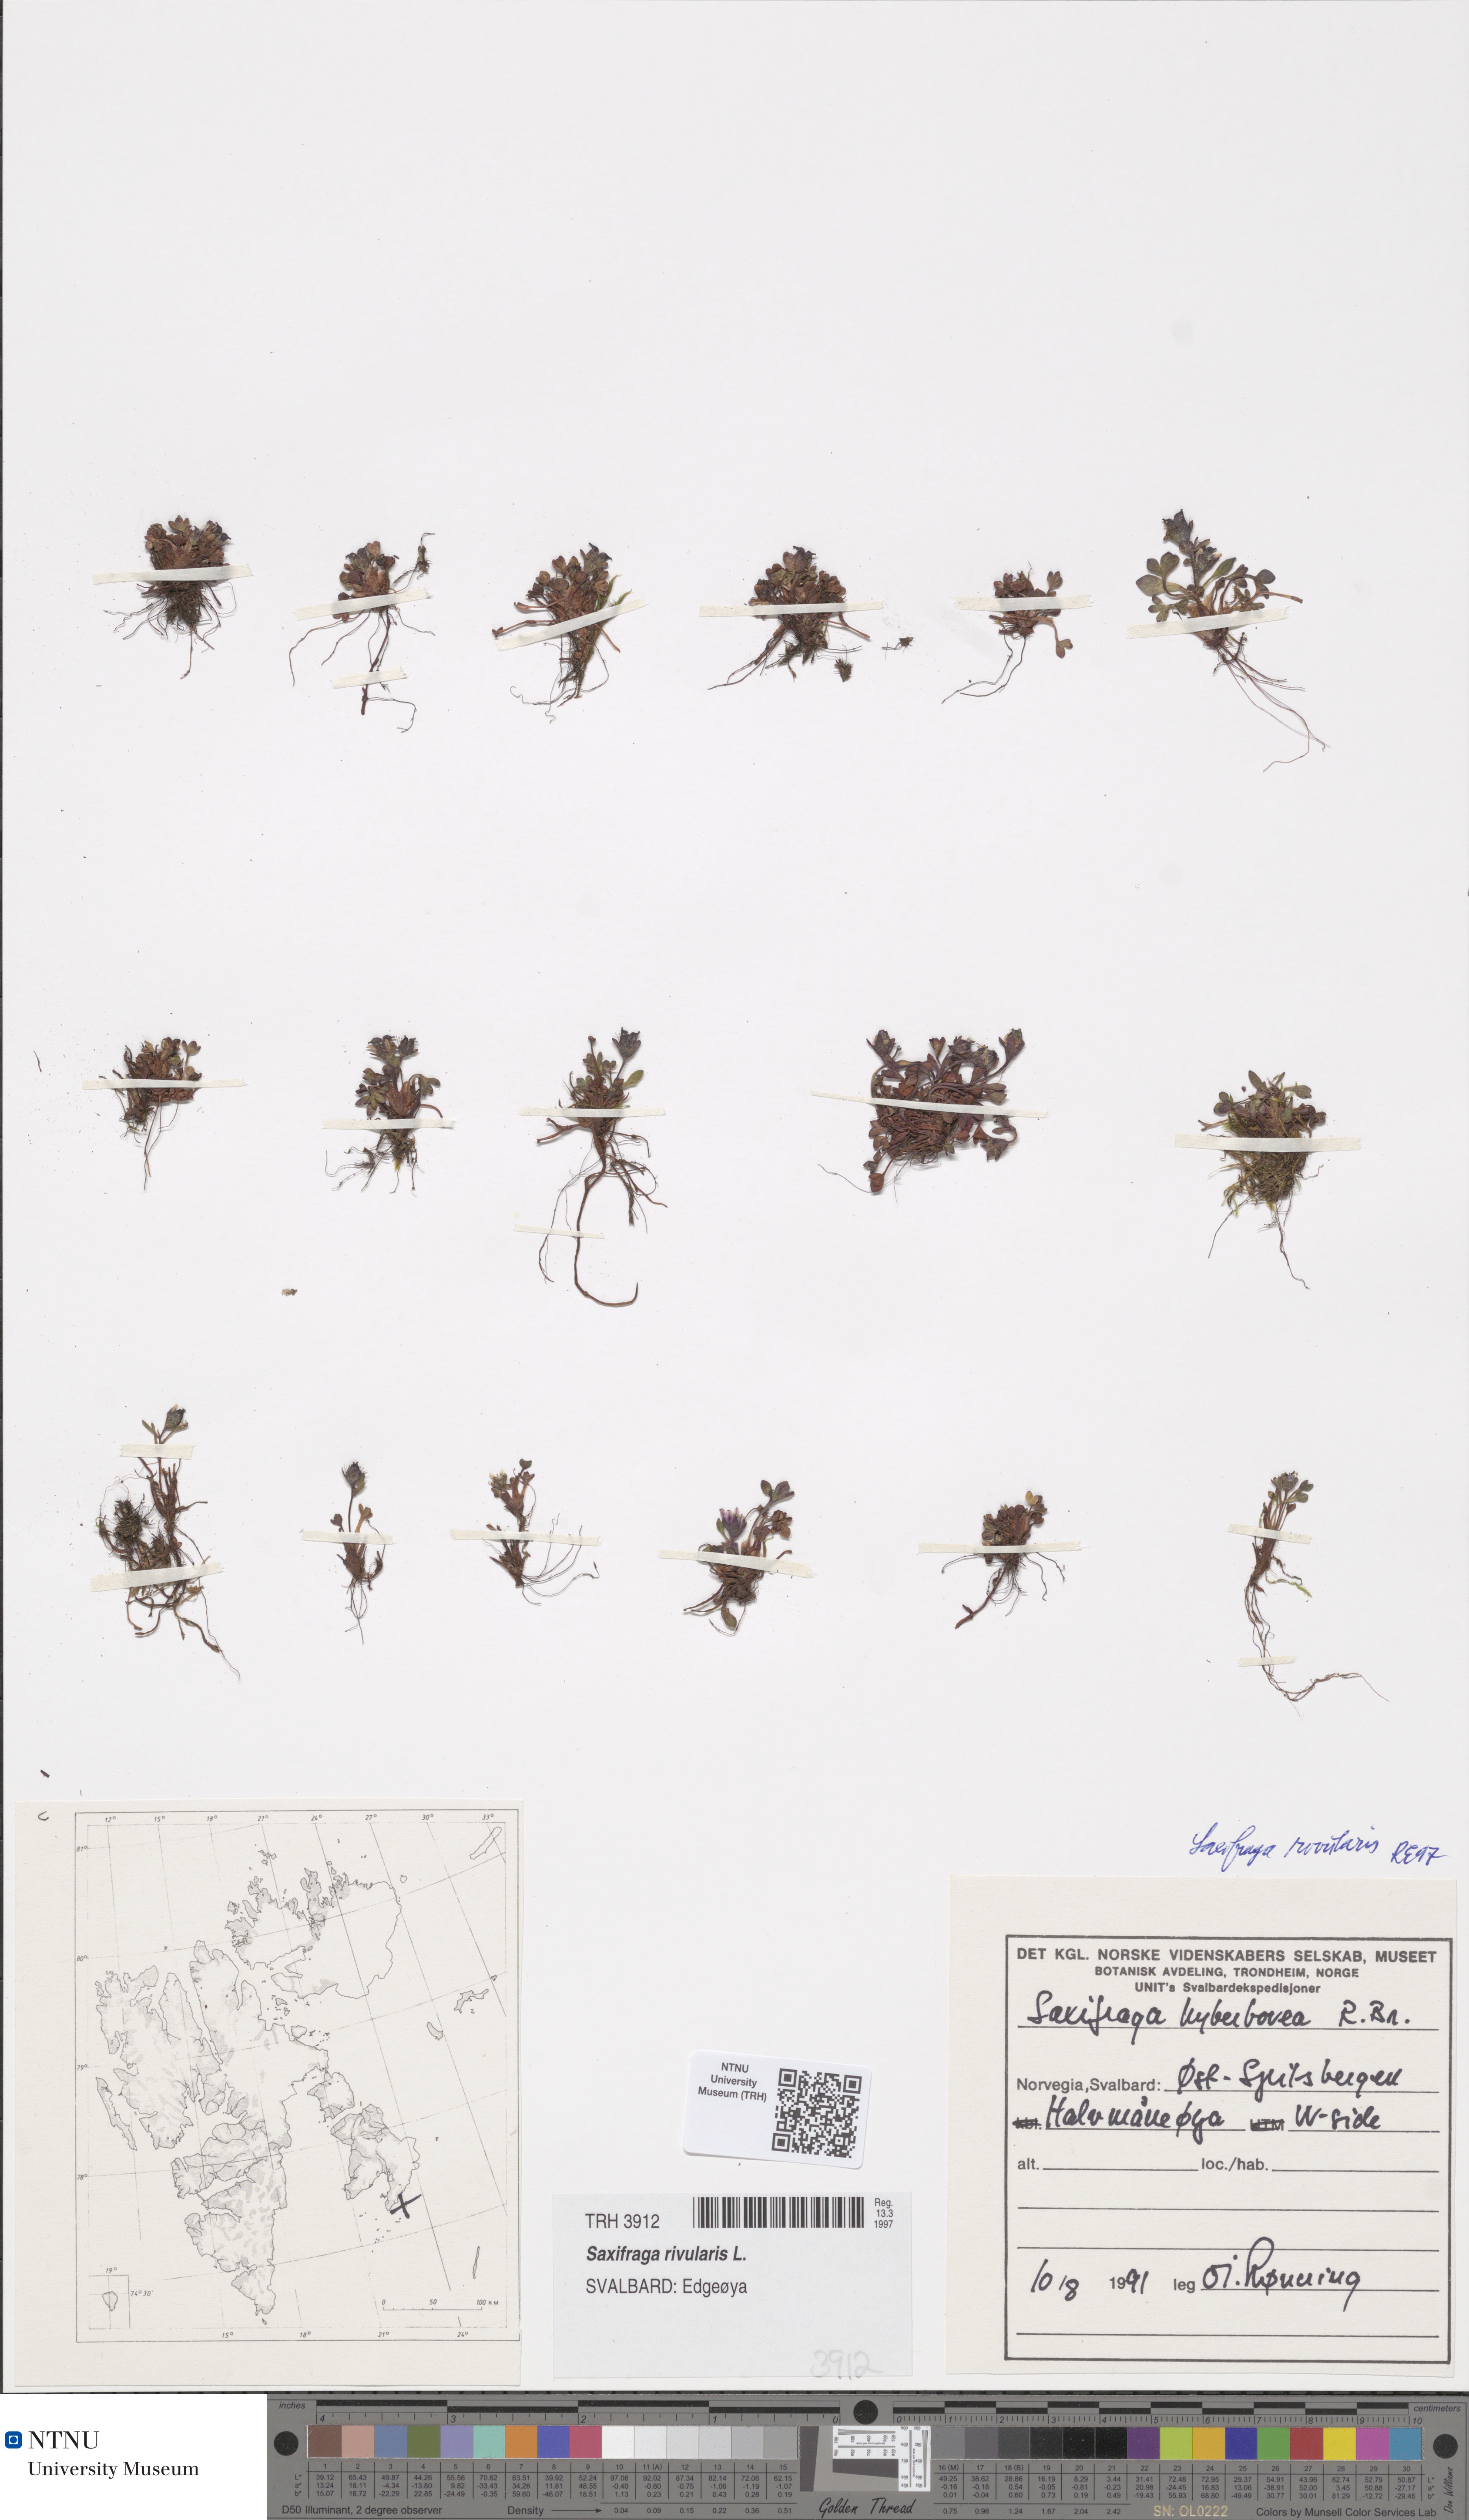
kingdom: Plantae
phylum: Tracheophyta
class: Magnoliopsida
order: Saxifragales
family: Saxifragaceae
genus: Saxifraga
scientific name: Saxifraga rivularis
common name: Highland saxifrage
